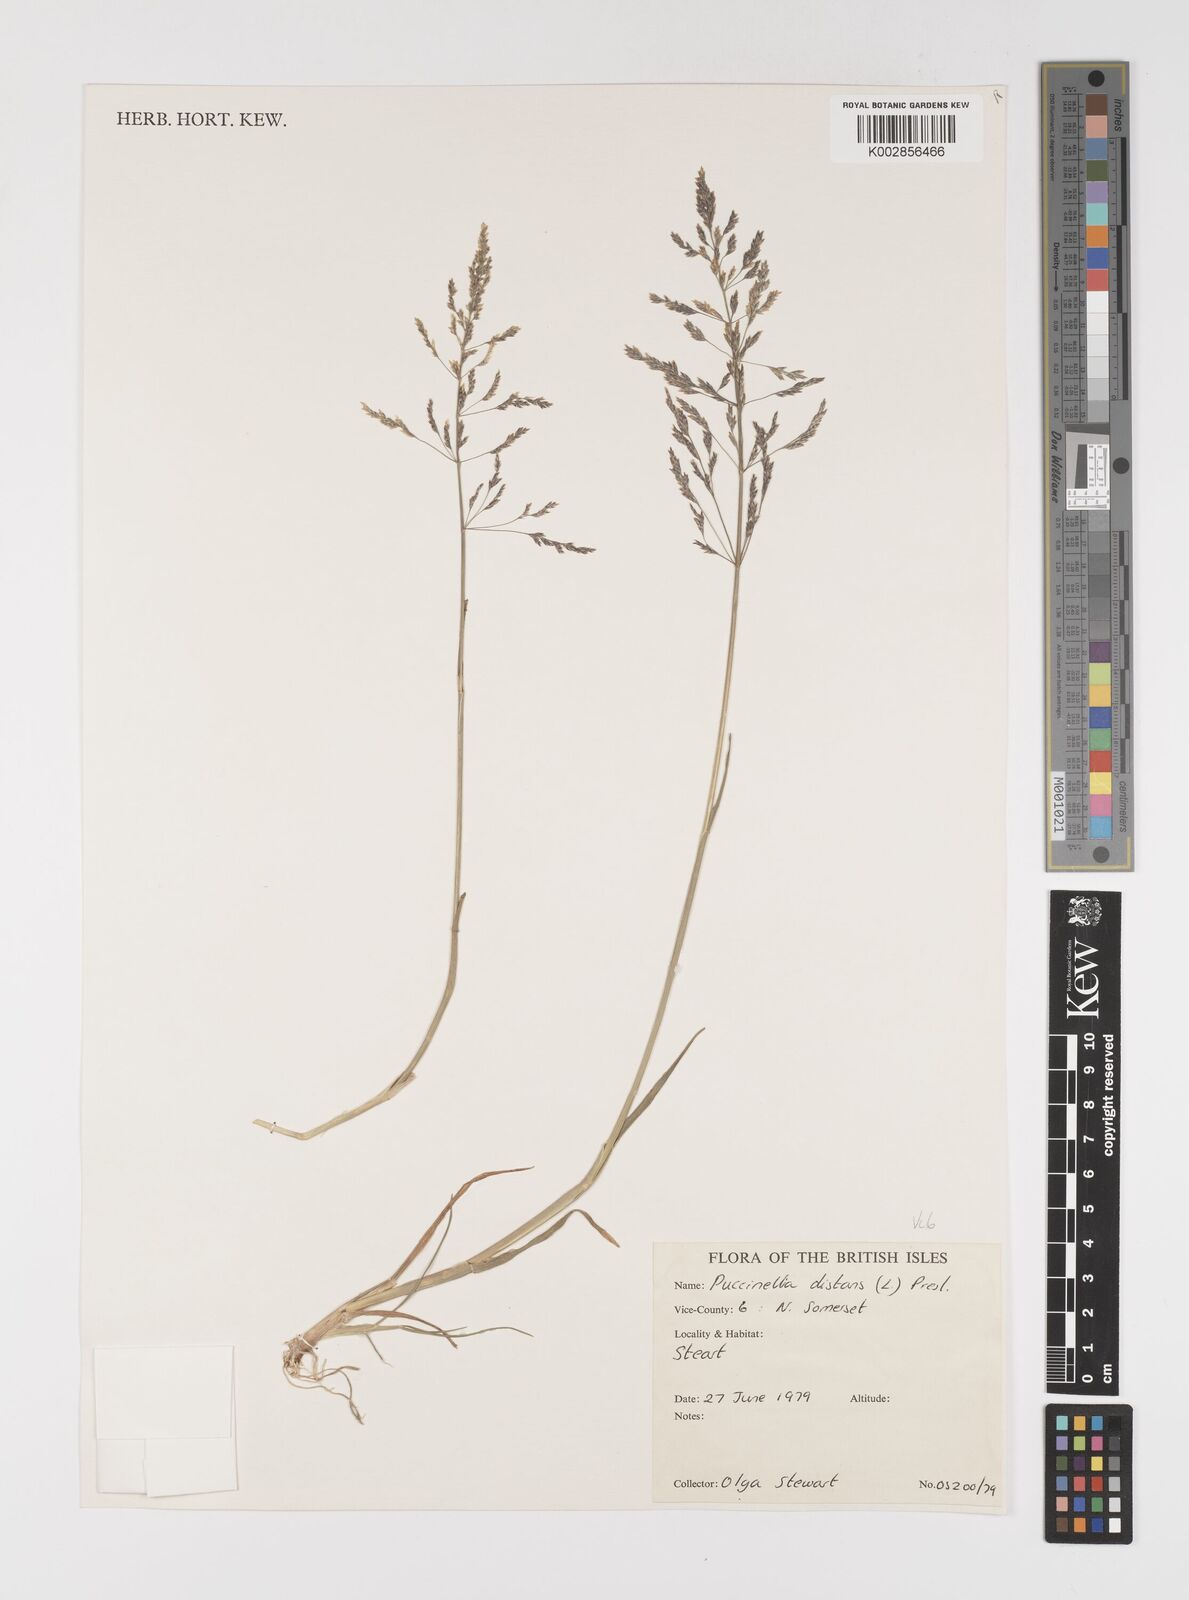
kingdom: Plantae
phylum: Tracheophyta
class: Liliopsida
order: Poales
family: Poaceae
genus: Puccinellia
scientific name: Puccinellia distans
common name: Weeping alkaligrass
